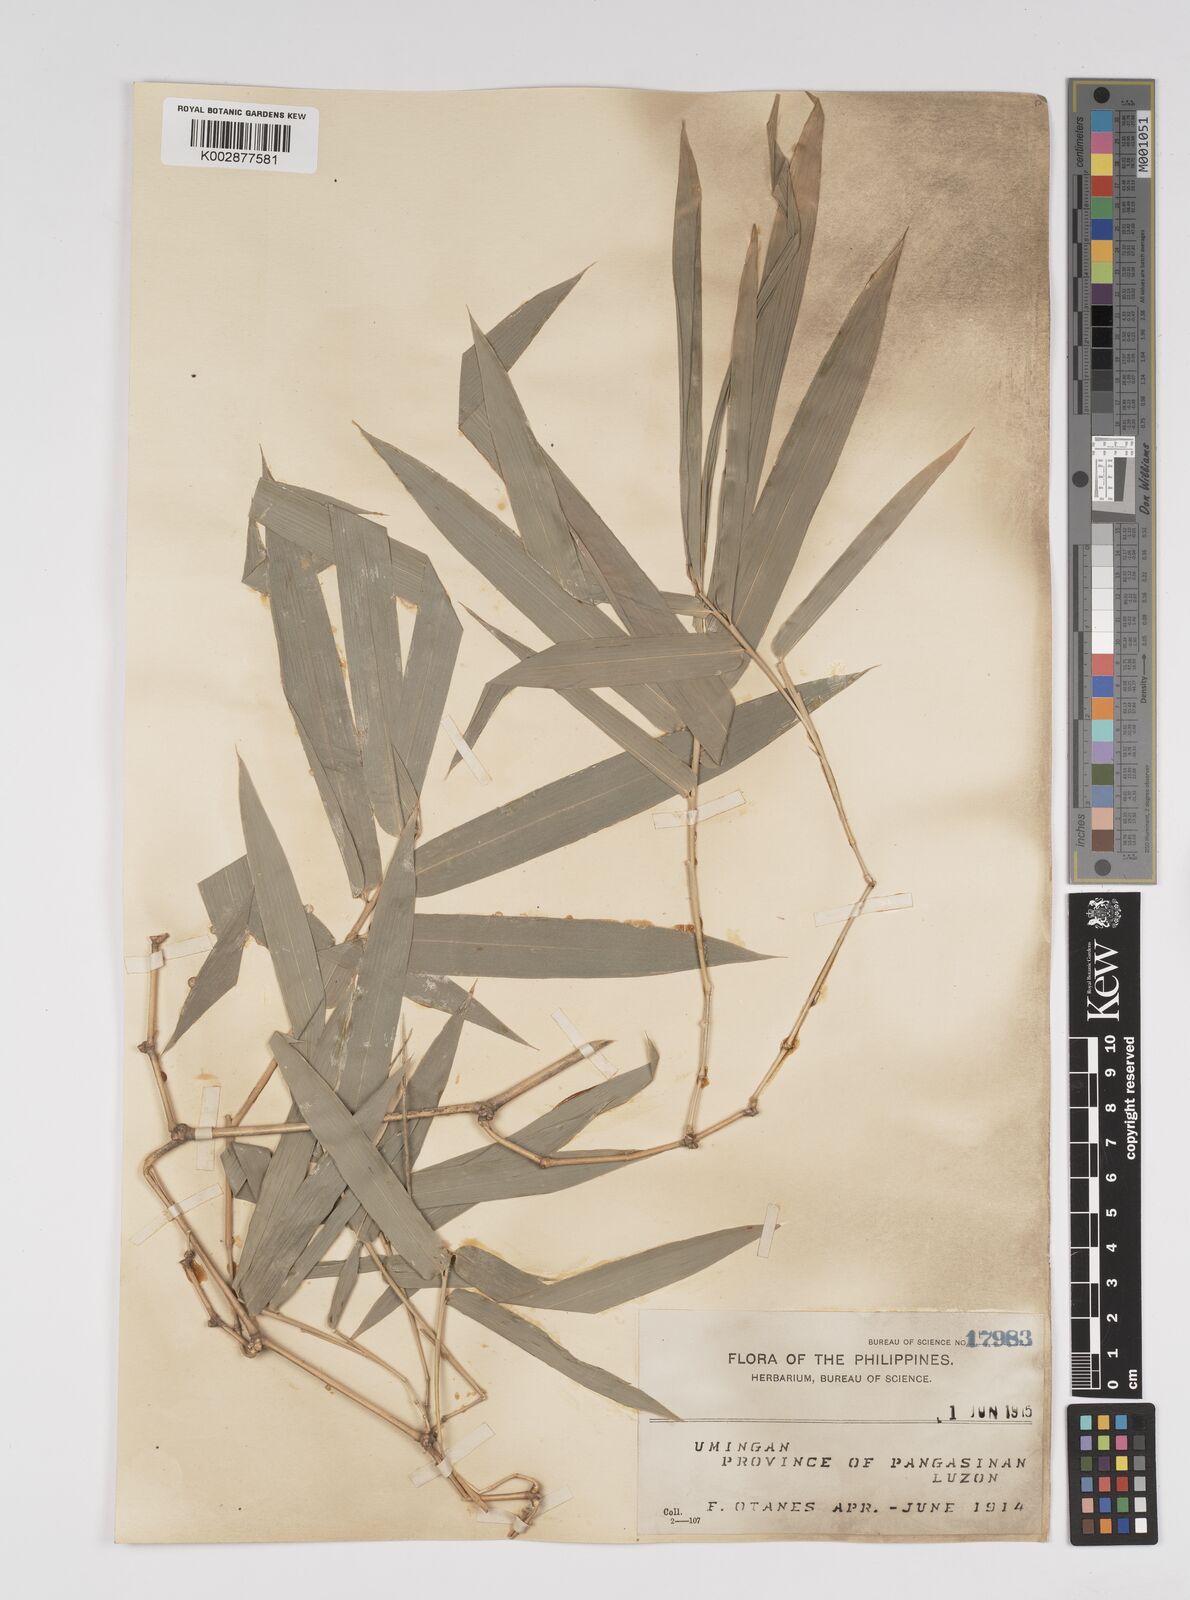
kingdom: Plantae
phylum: Tracheophyta
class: Liliopsida
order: Poales
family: Poaceae
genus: Bambusa
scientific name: Bambusa
